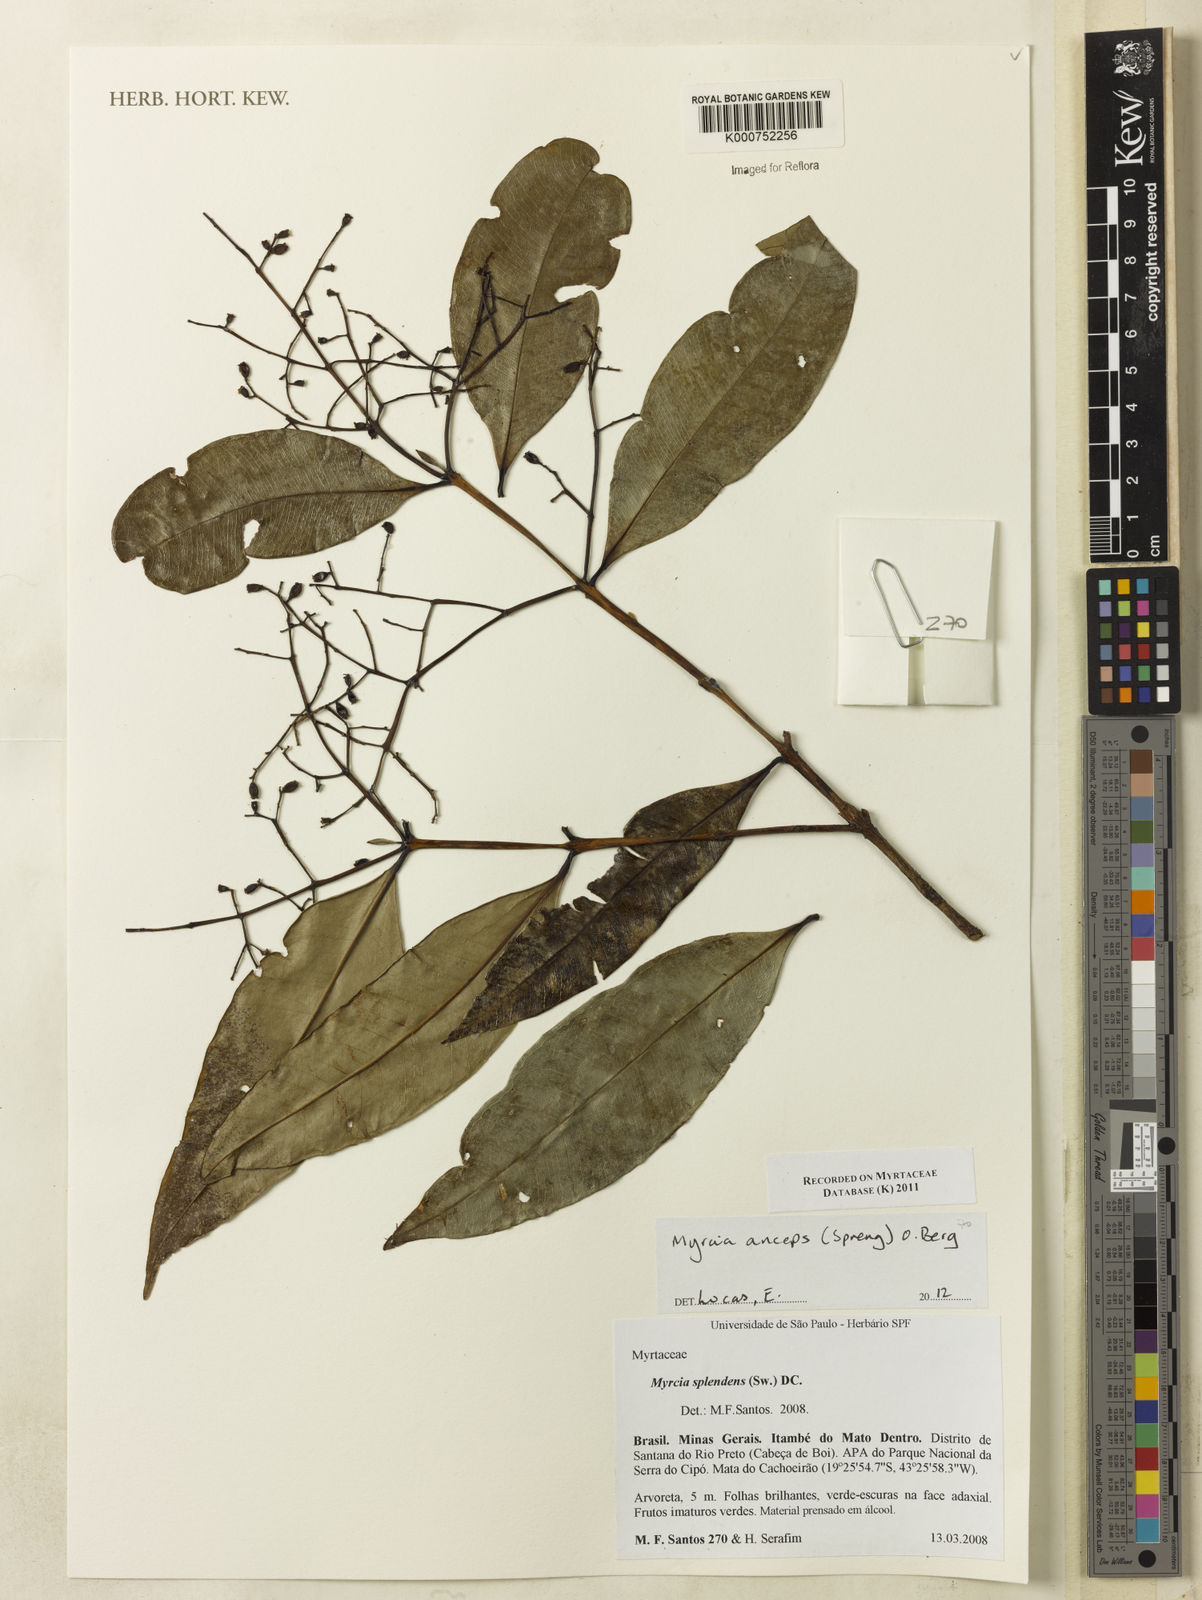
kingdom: Plantae
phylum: Tracheophyta
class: Magnoliopsida
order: Myrtales
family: Myrtaceae
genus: Myrcia
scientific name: Myrcia anceps
